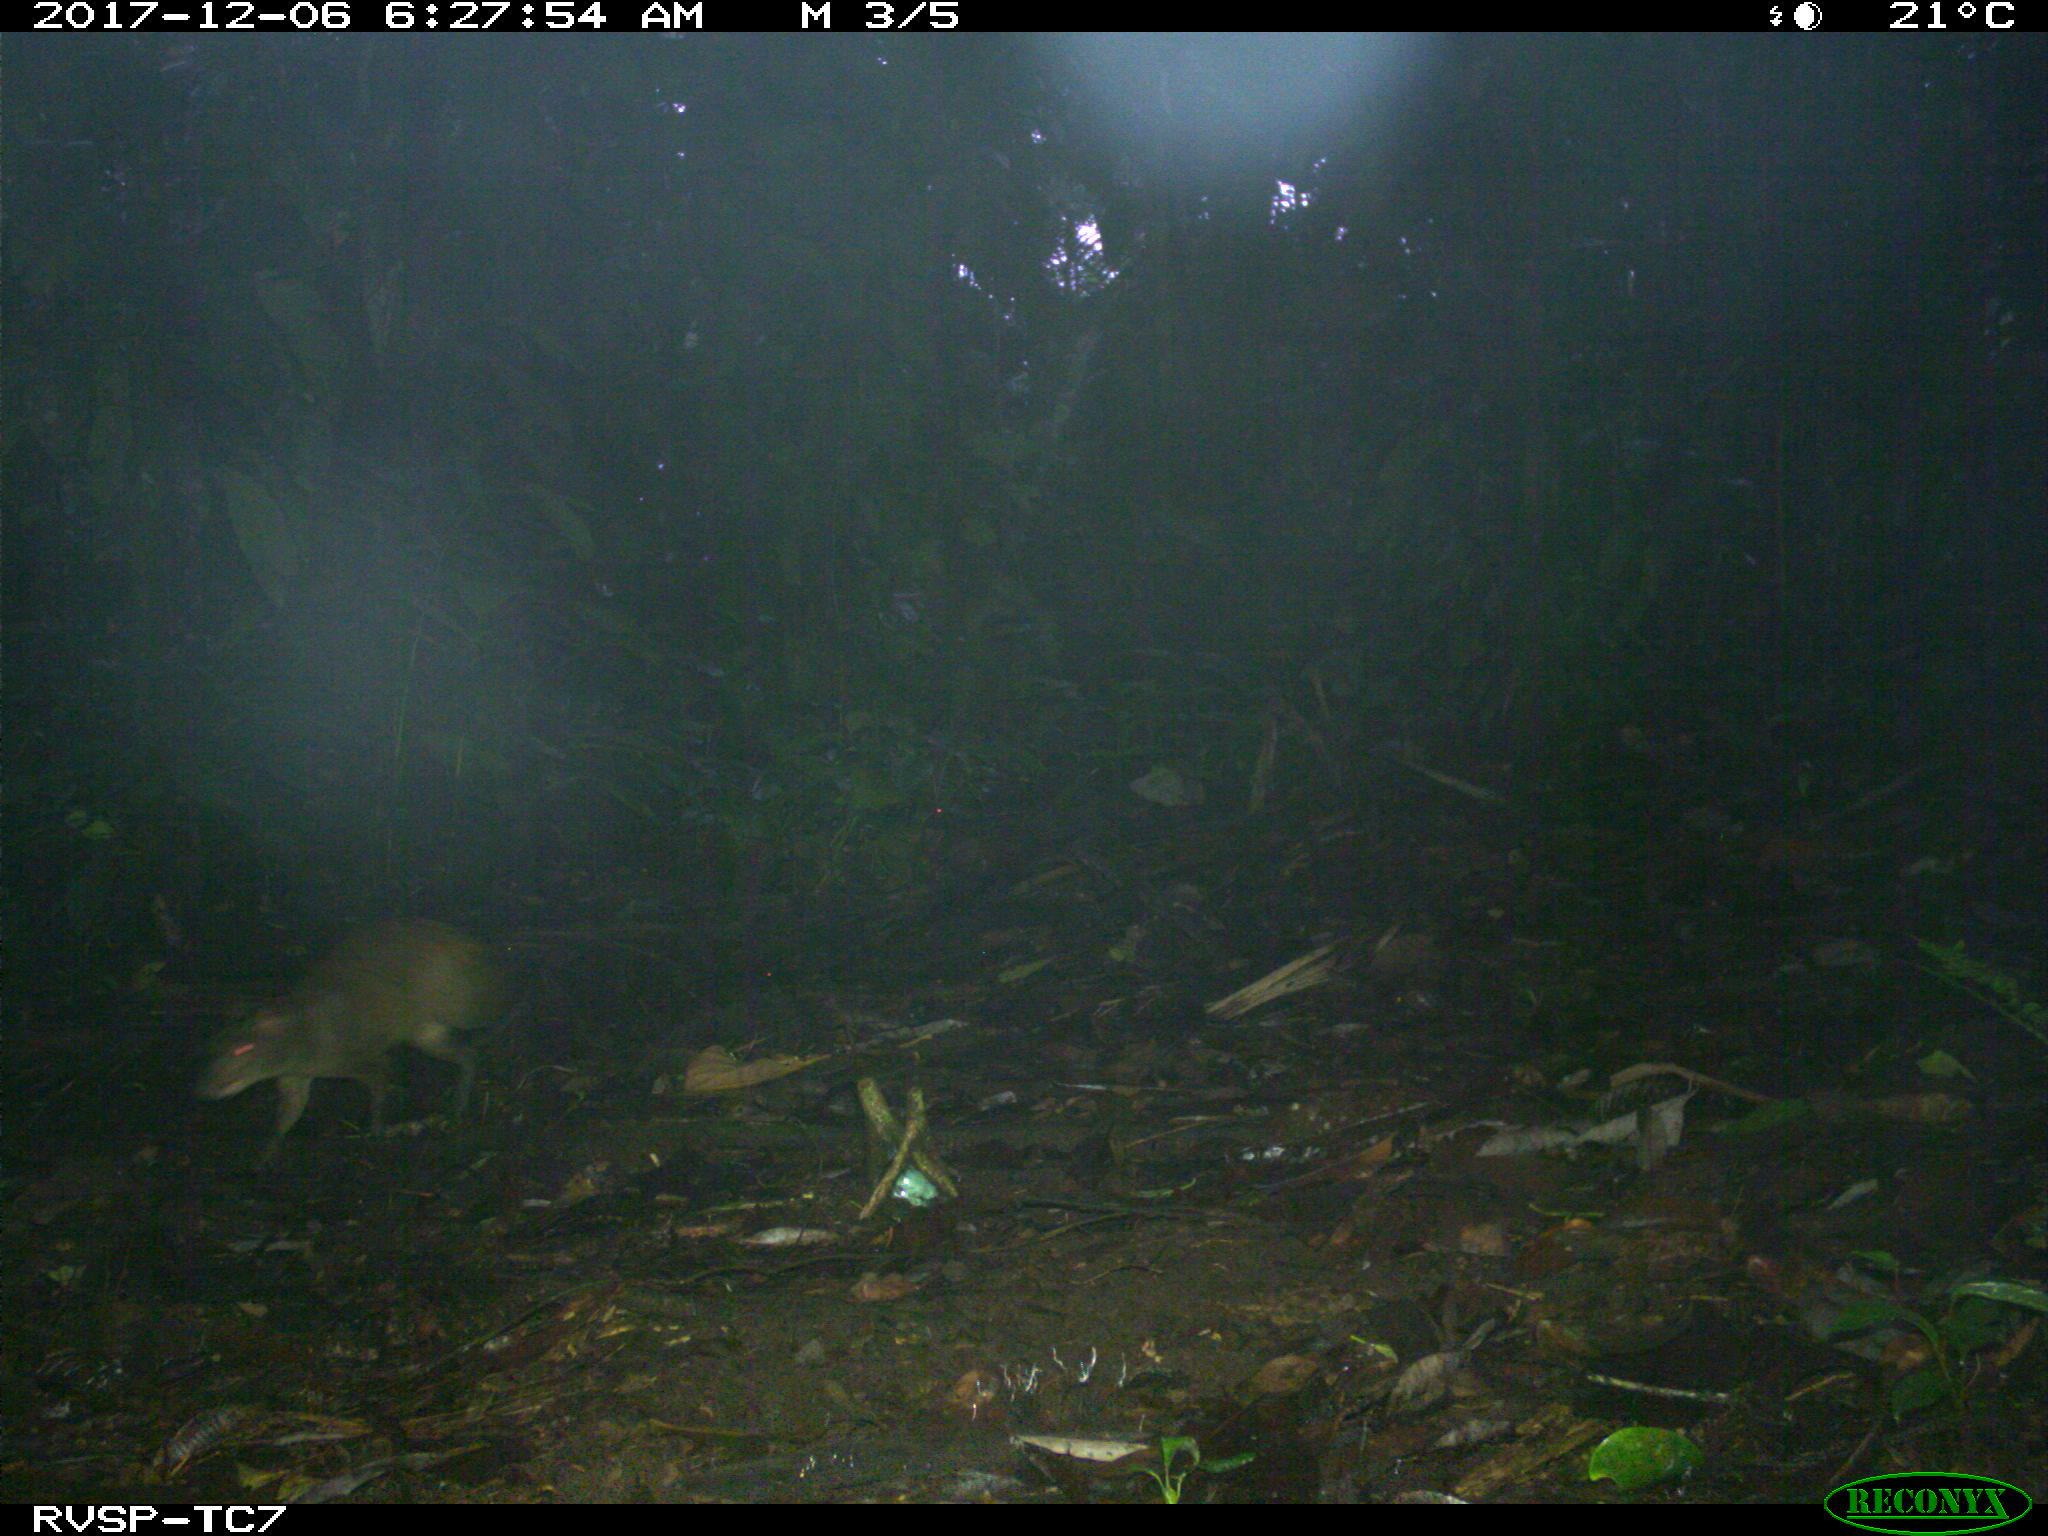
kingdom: Animalia
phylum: Chordata
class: Mammalia
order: Rodentia
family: Dasyproctidae
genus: Dasyprocta
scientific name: Dasyprocta punctata
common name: Central american agouti
